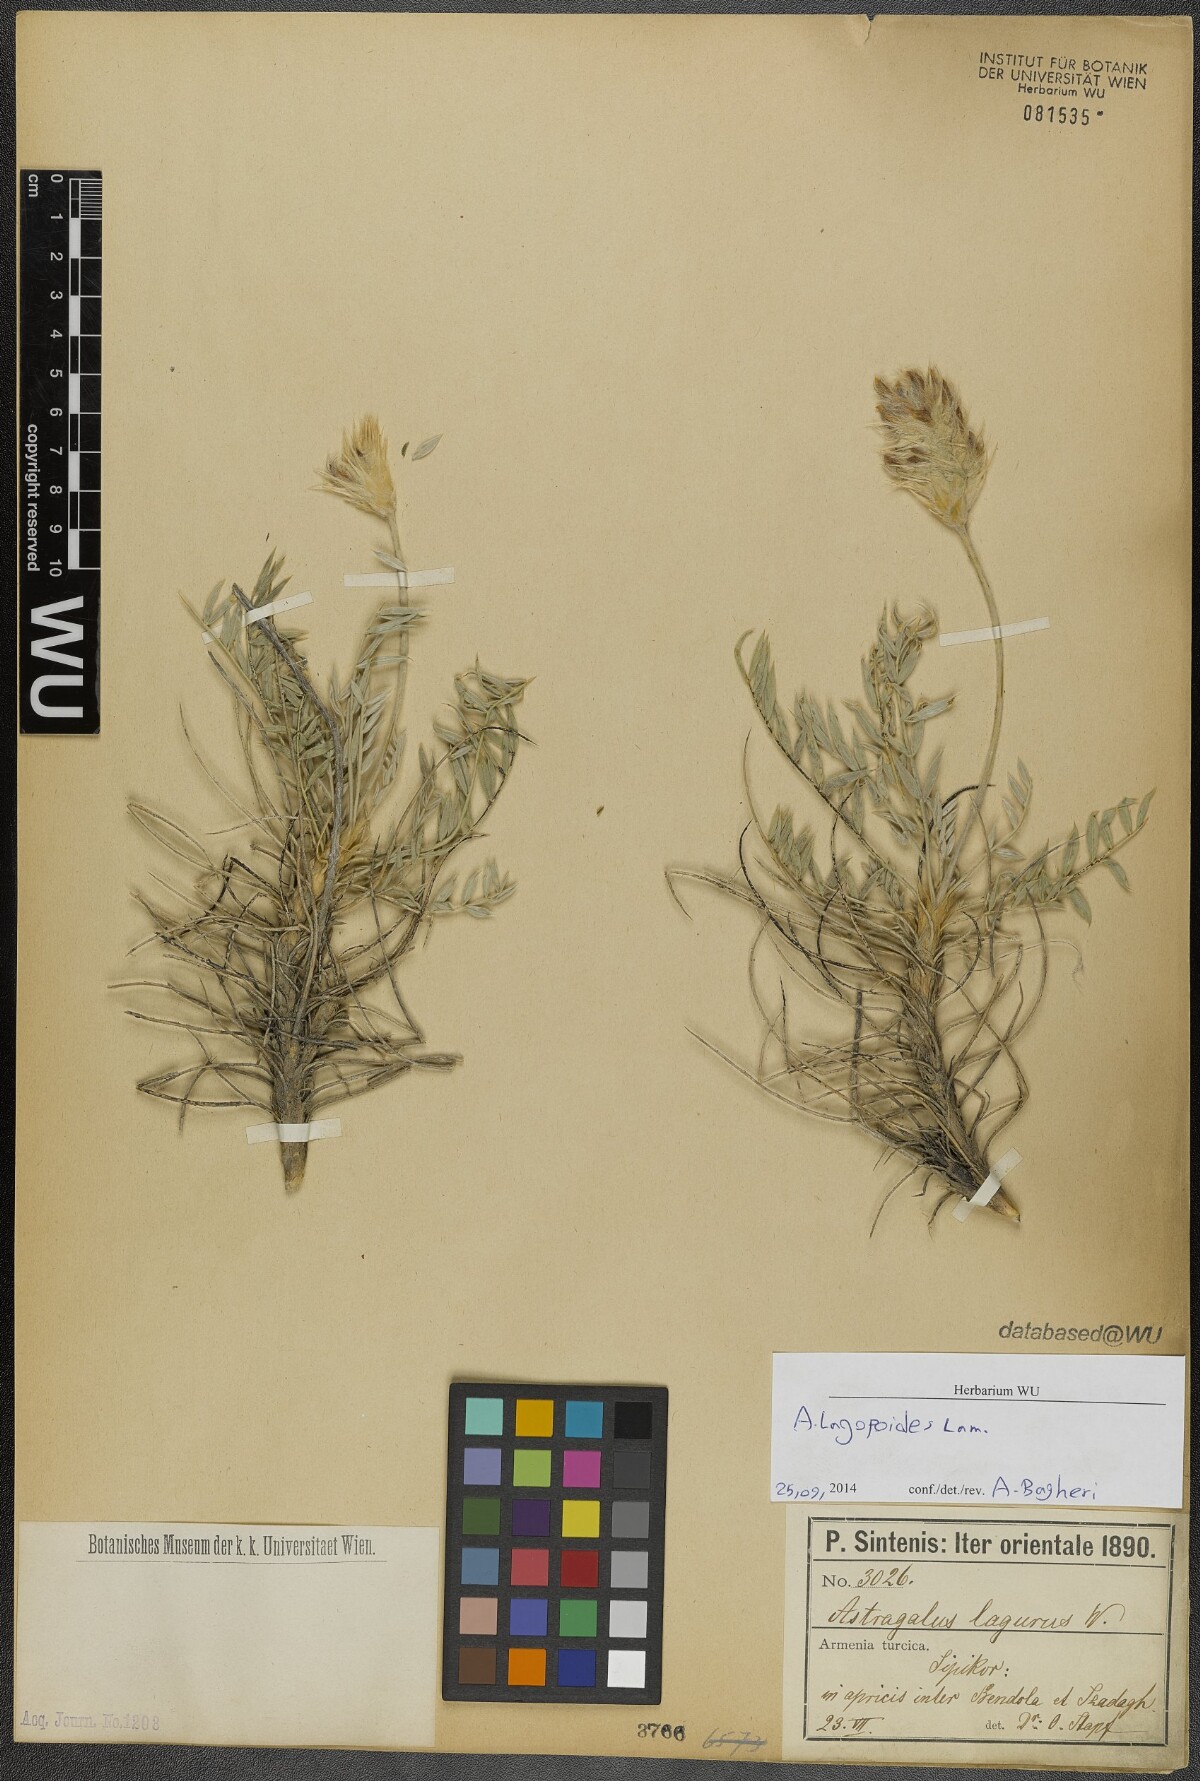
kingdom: Plantae
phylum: Tracheophyta
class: Magnoliopsida
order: Fabales
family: Fabaceae
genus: Astragalus
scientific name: Astragalus lagopoides
